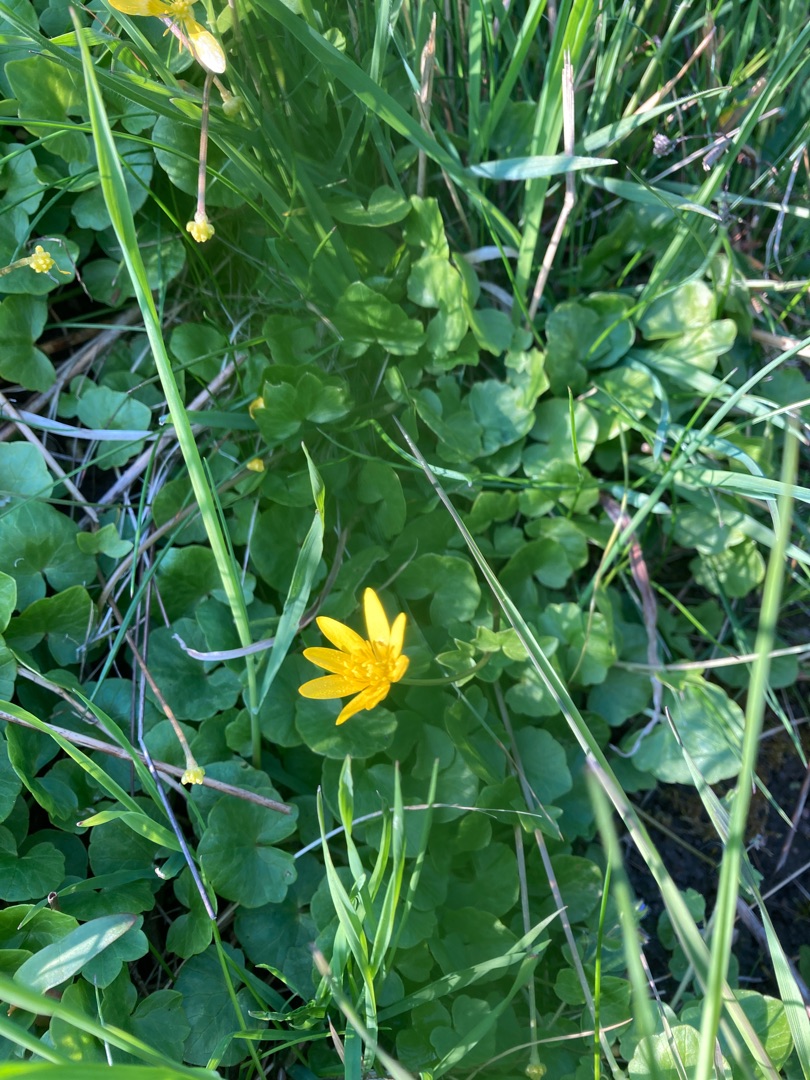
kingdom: Plantae
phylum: Tracheophyta
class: Magnoliopsida
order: Ranunculales
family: Ranunculaceae
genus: Ficaria
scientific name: Ficaria verna
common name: Vorterod
